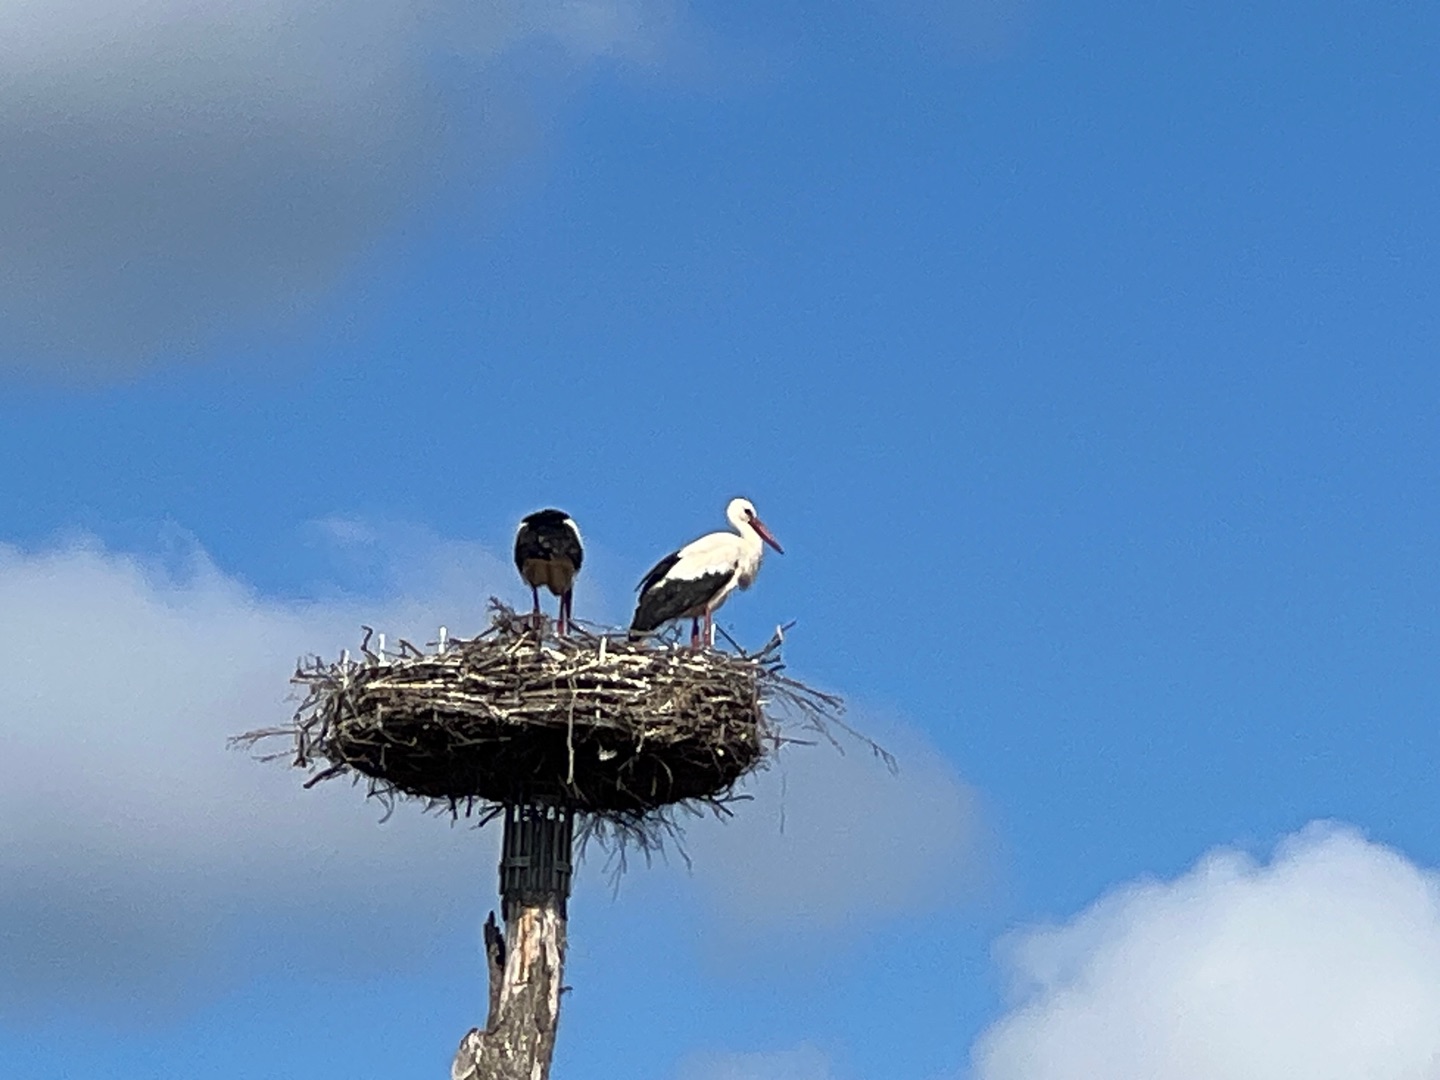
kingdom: Animalia
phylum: Chordata
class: Aves
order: Ciconiiformes
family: Ciconiidae
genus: Ciconia
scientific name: Ciconia ciconia
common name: Hvid stork
